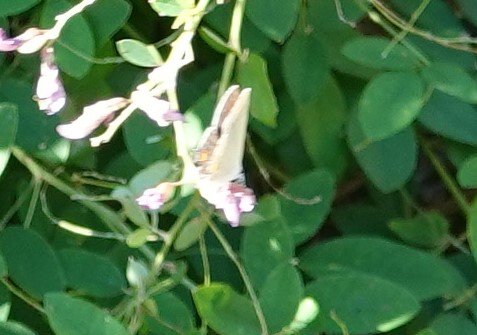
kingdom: Animalia
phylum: Arthropoda
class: Insecta
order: Lepidoptera
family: Pieridae
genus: Phoebis
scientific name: Phoebis sennae
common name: Cloudless Sulphur
